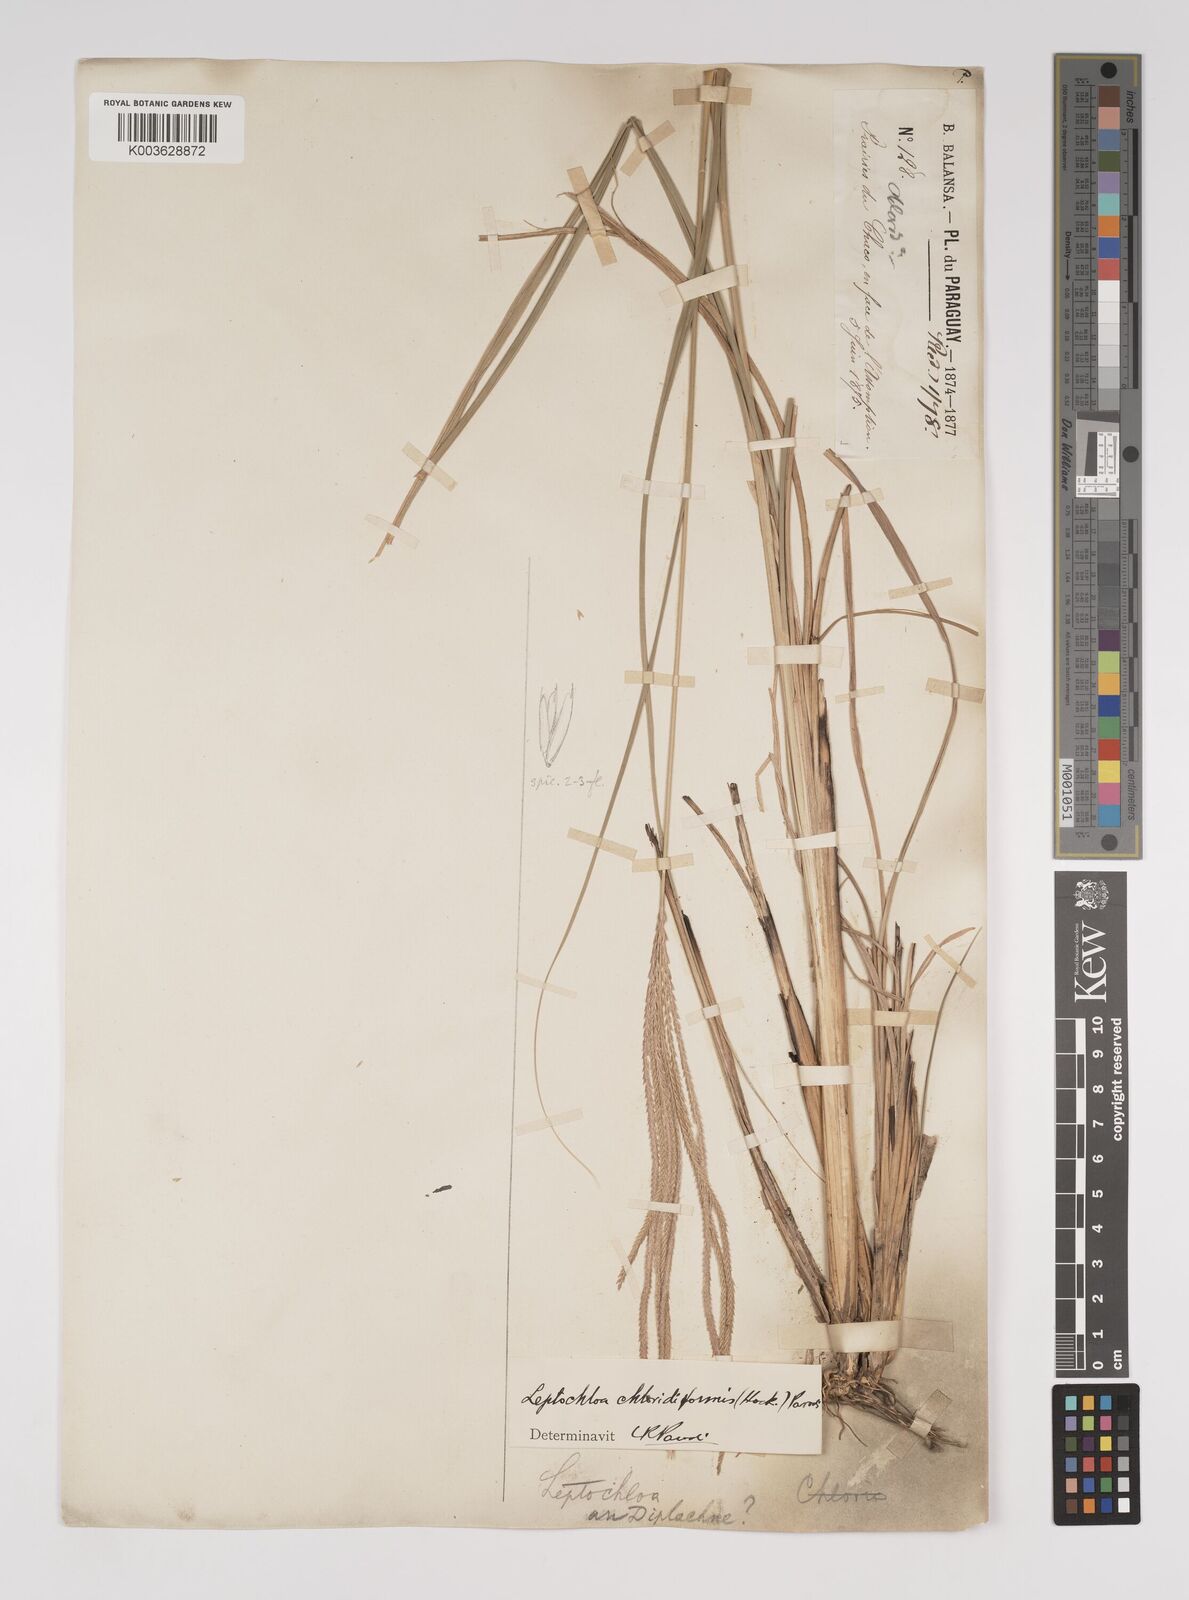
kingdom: Plantae
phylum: Tracheophyta
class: Liliopsida
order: Poales
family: Poaceae
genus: Leptochloa
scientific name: Leptochloa chloridiformis
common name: Argentine sprangletop
